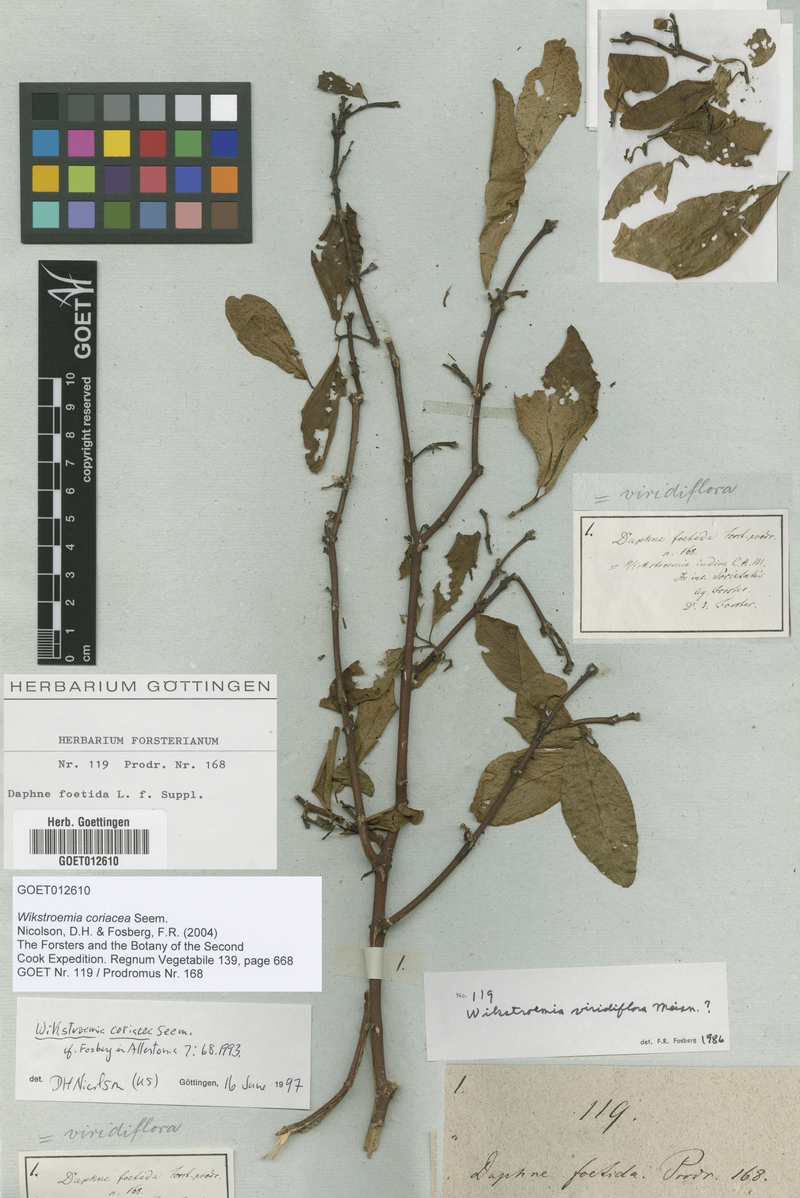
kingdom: Plantae
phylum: Tracheophyta
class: Magnoliopsida
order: Malvales
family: Thymelaeaceae
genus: Wikstroemia
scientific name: Wikstroemia coriacea
